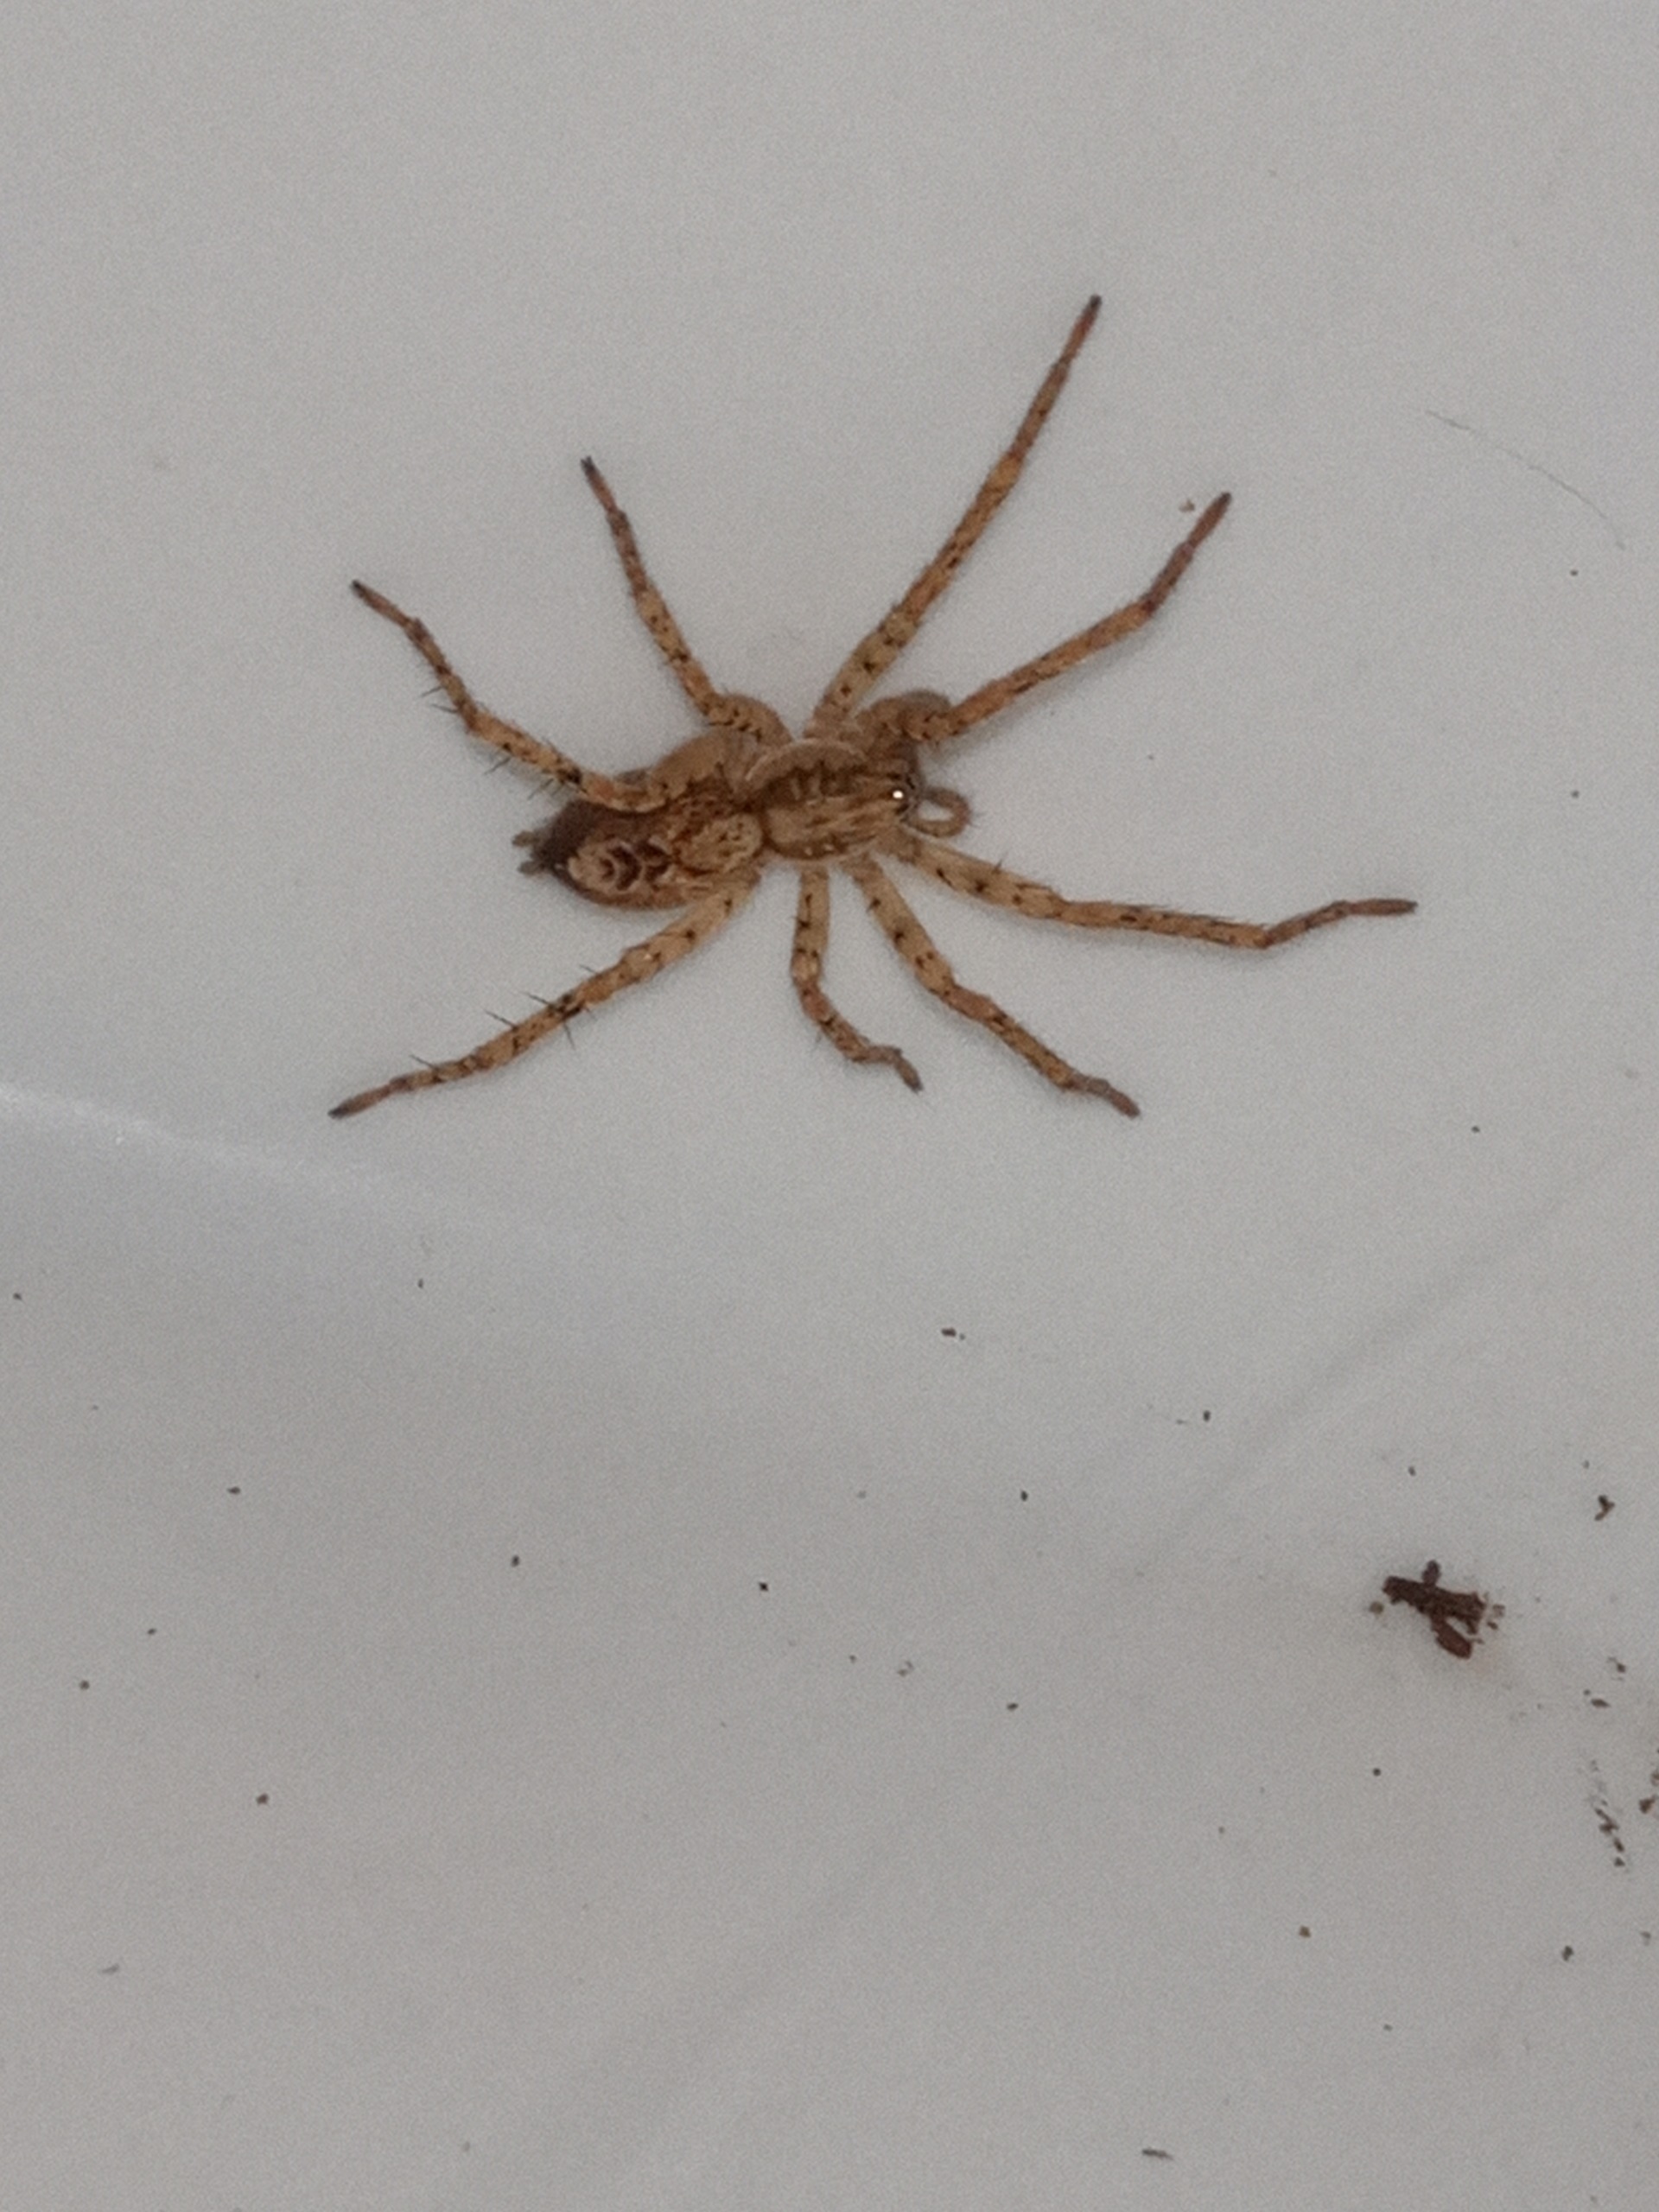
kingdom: Animalia
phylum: Arthropoda
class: Arachnida
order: Araneae
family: Anyphaenidae
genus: Anyphaena
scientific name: Anyphaena accentuata
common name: Summeedderkop
